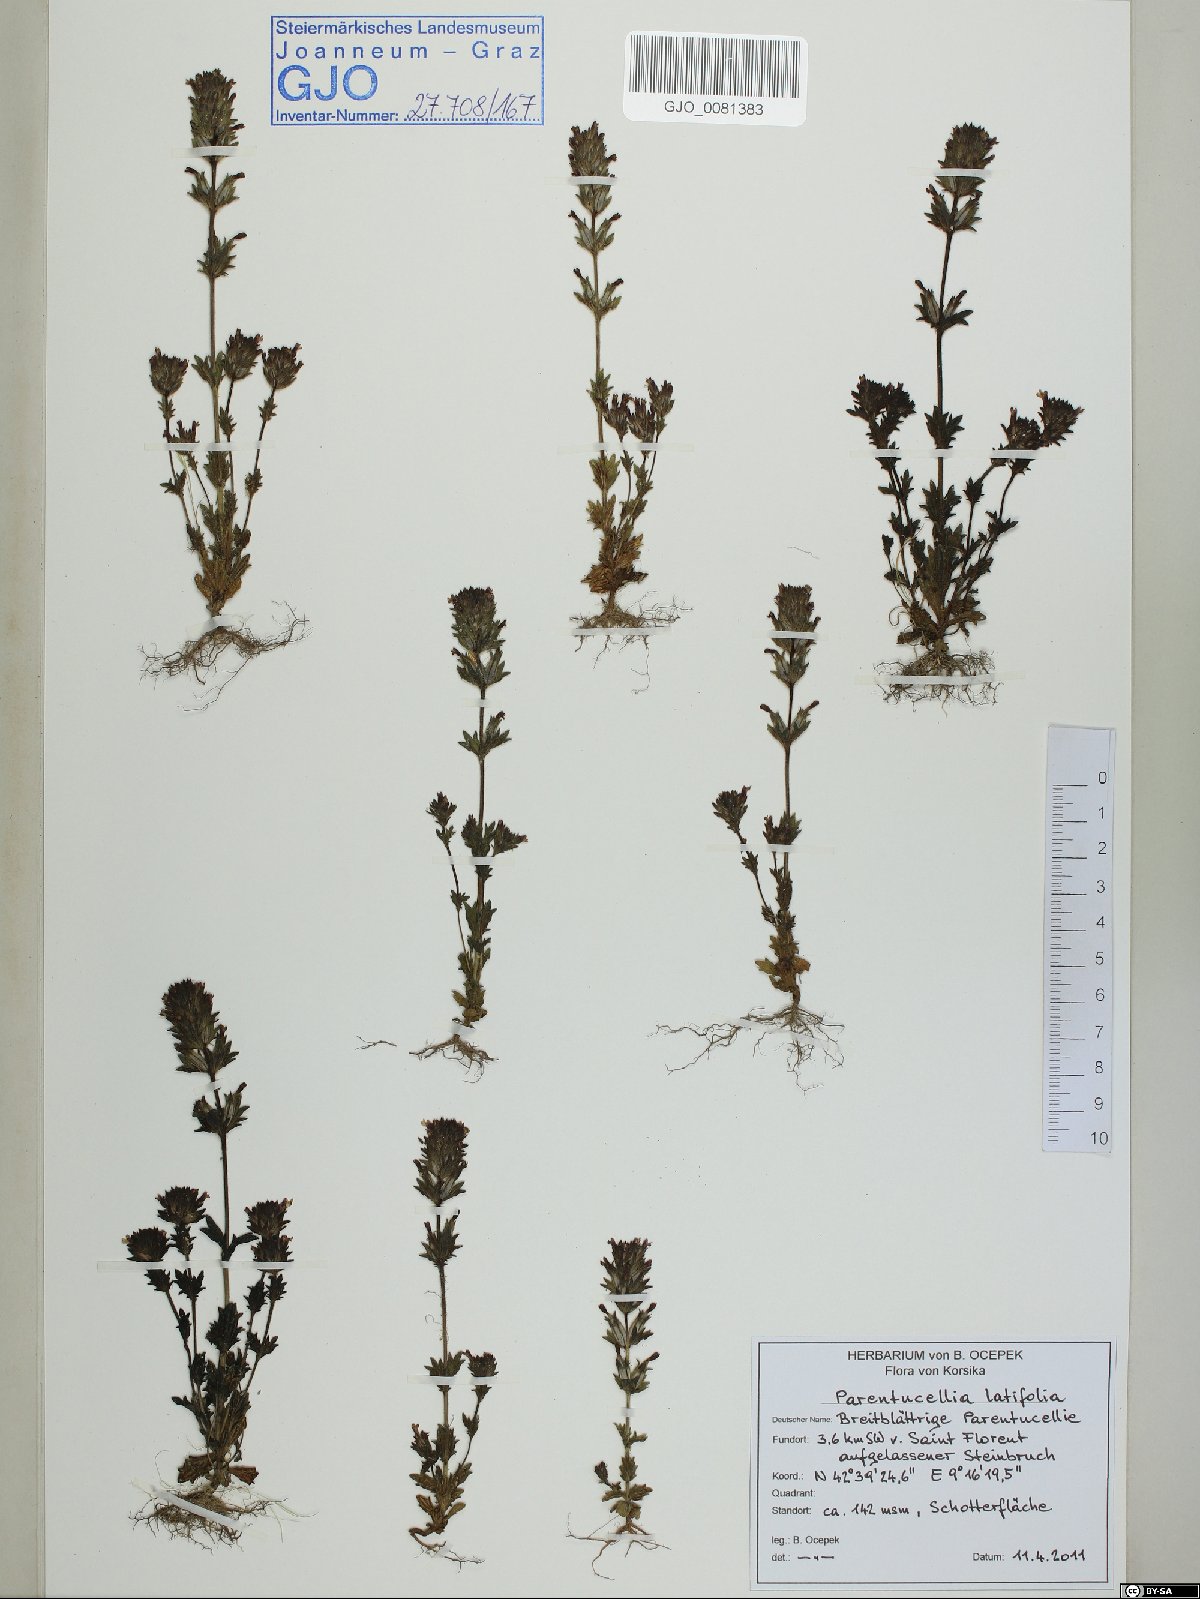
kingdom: Plantae
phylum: Tracheophyta
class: Magnoliopsida
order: Lamiales
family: Orobanchaceae
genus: Parentucellia
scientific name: Parentucellia latifolia
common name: Broadleaf glandweed
